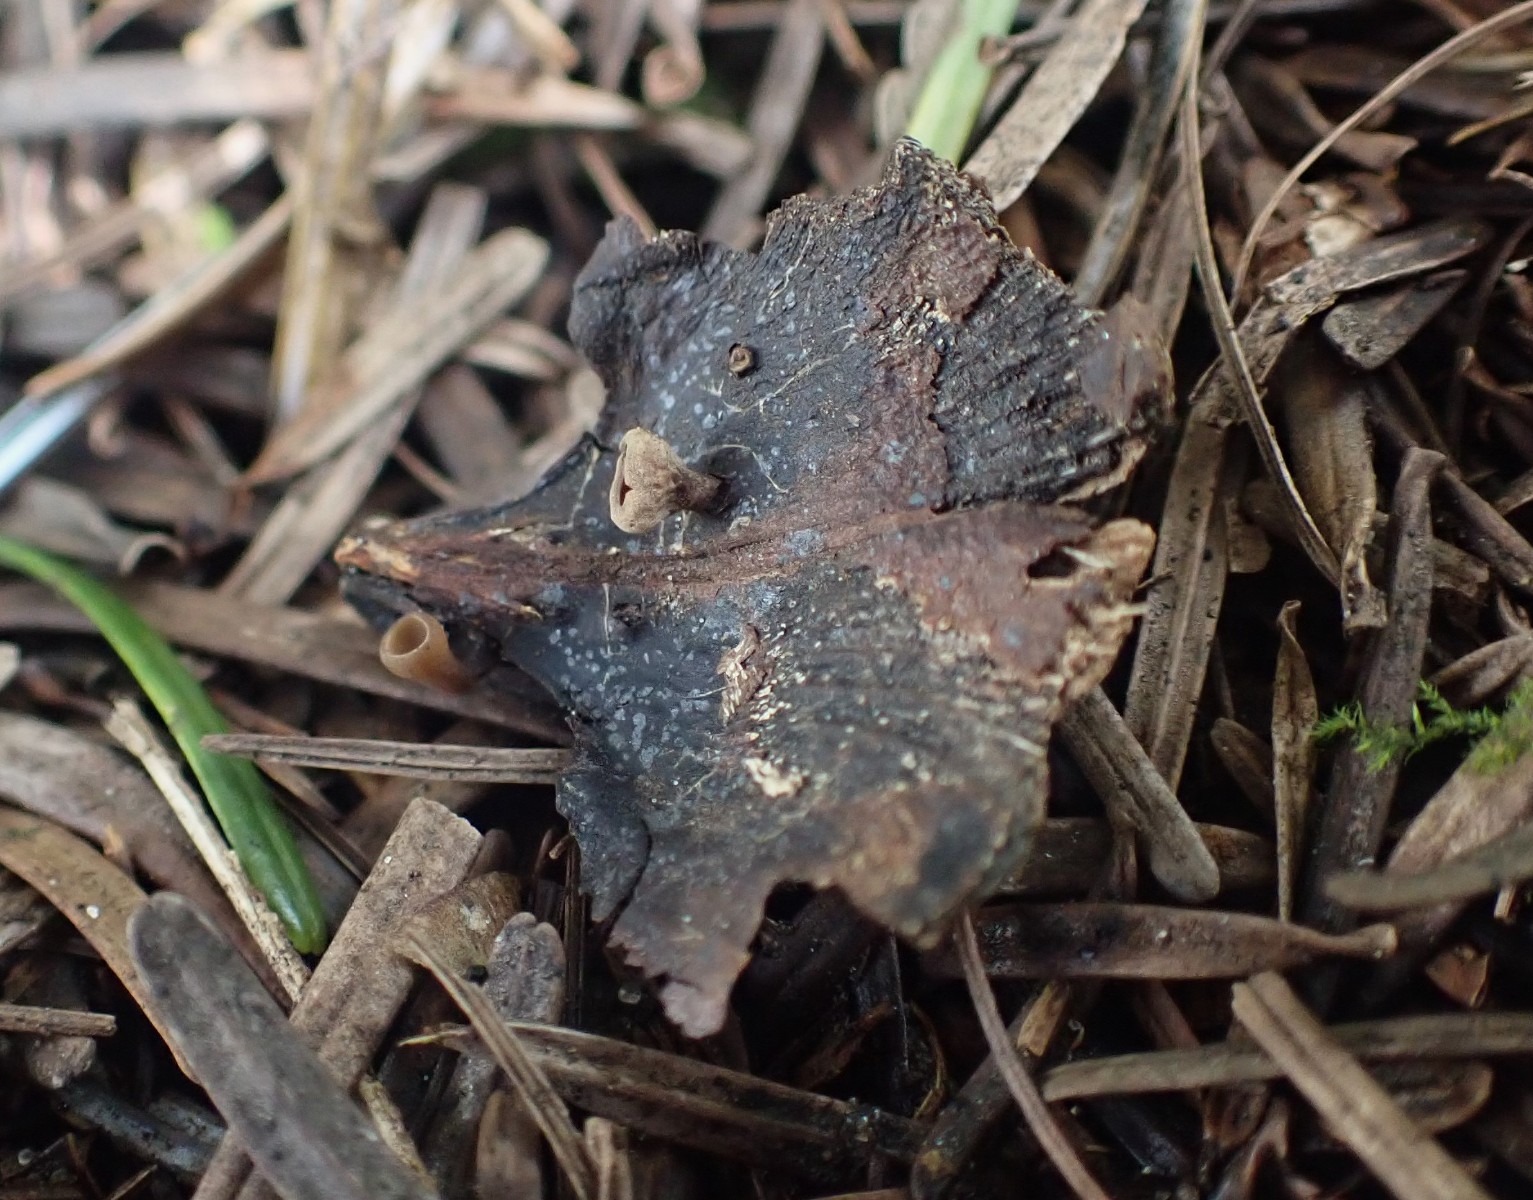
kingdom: Fungi
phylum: Ascomycota
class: Leotiomycetes
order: Helotiales
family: Sclerotiniaceae
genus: Ciboria
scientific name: Ciboria rufofusca
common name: kogleskæl-knoldskive
